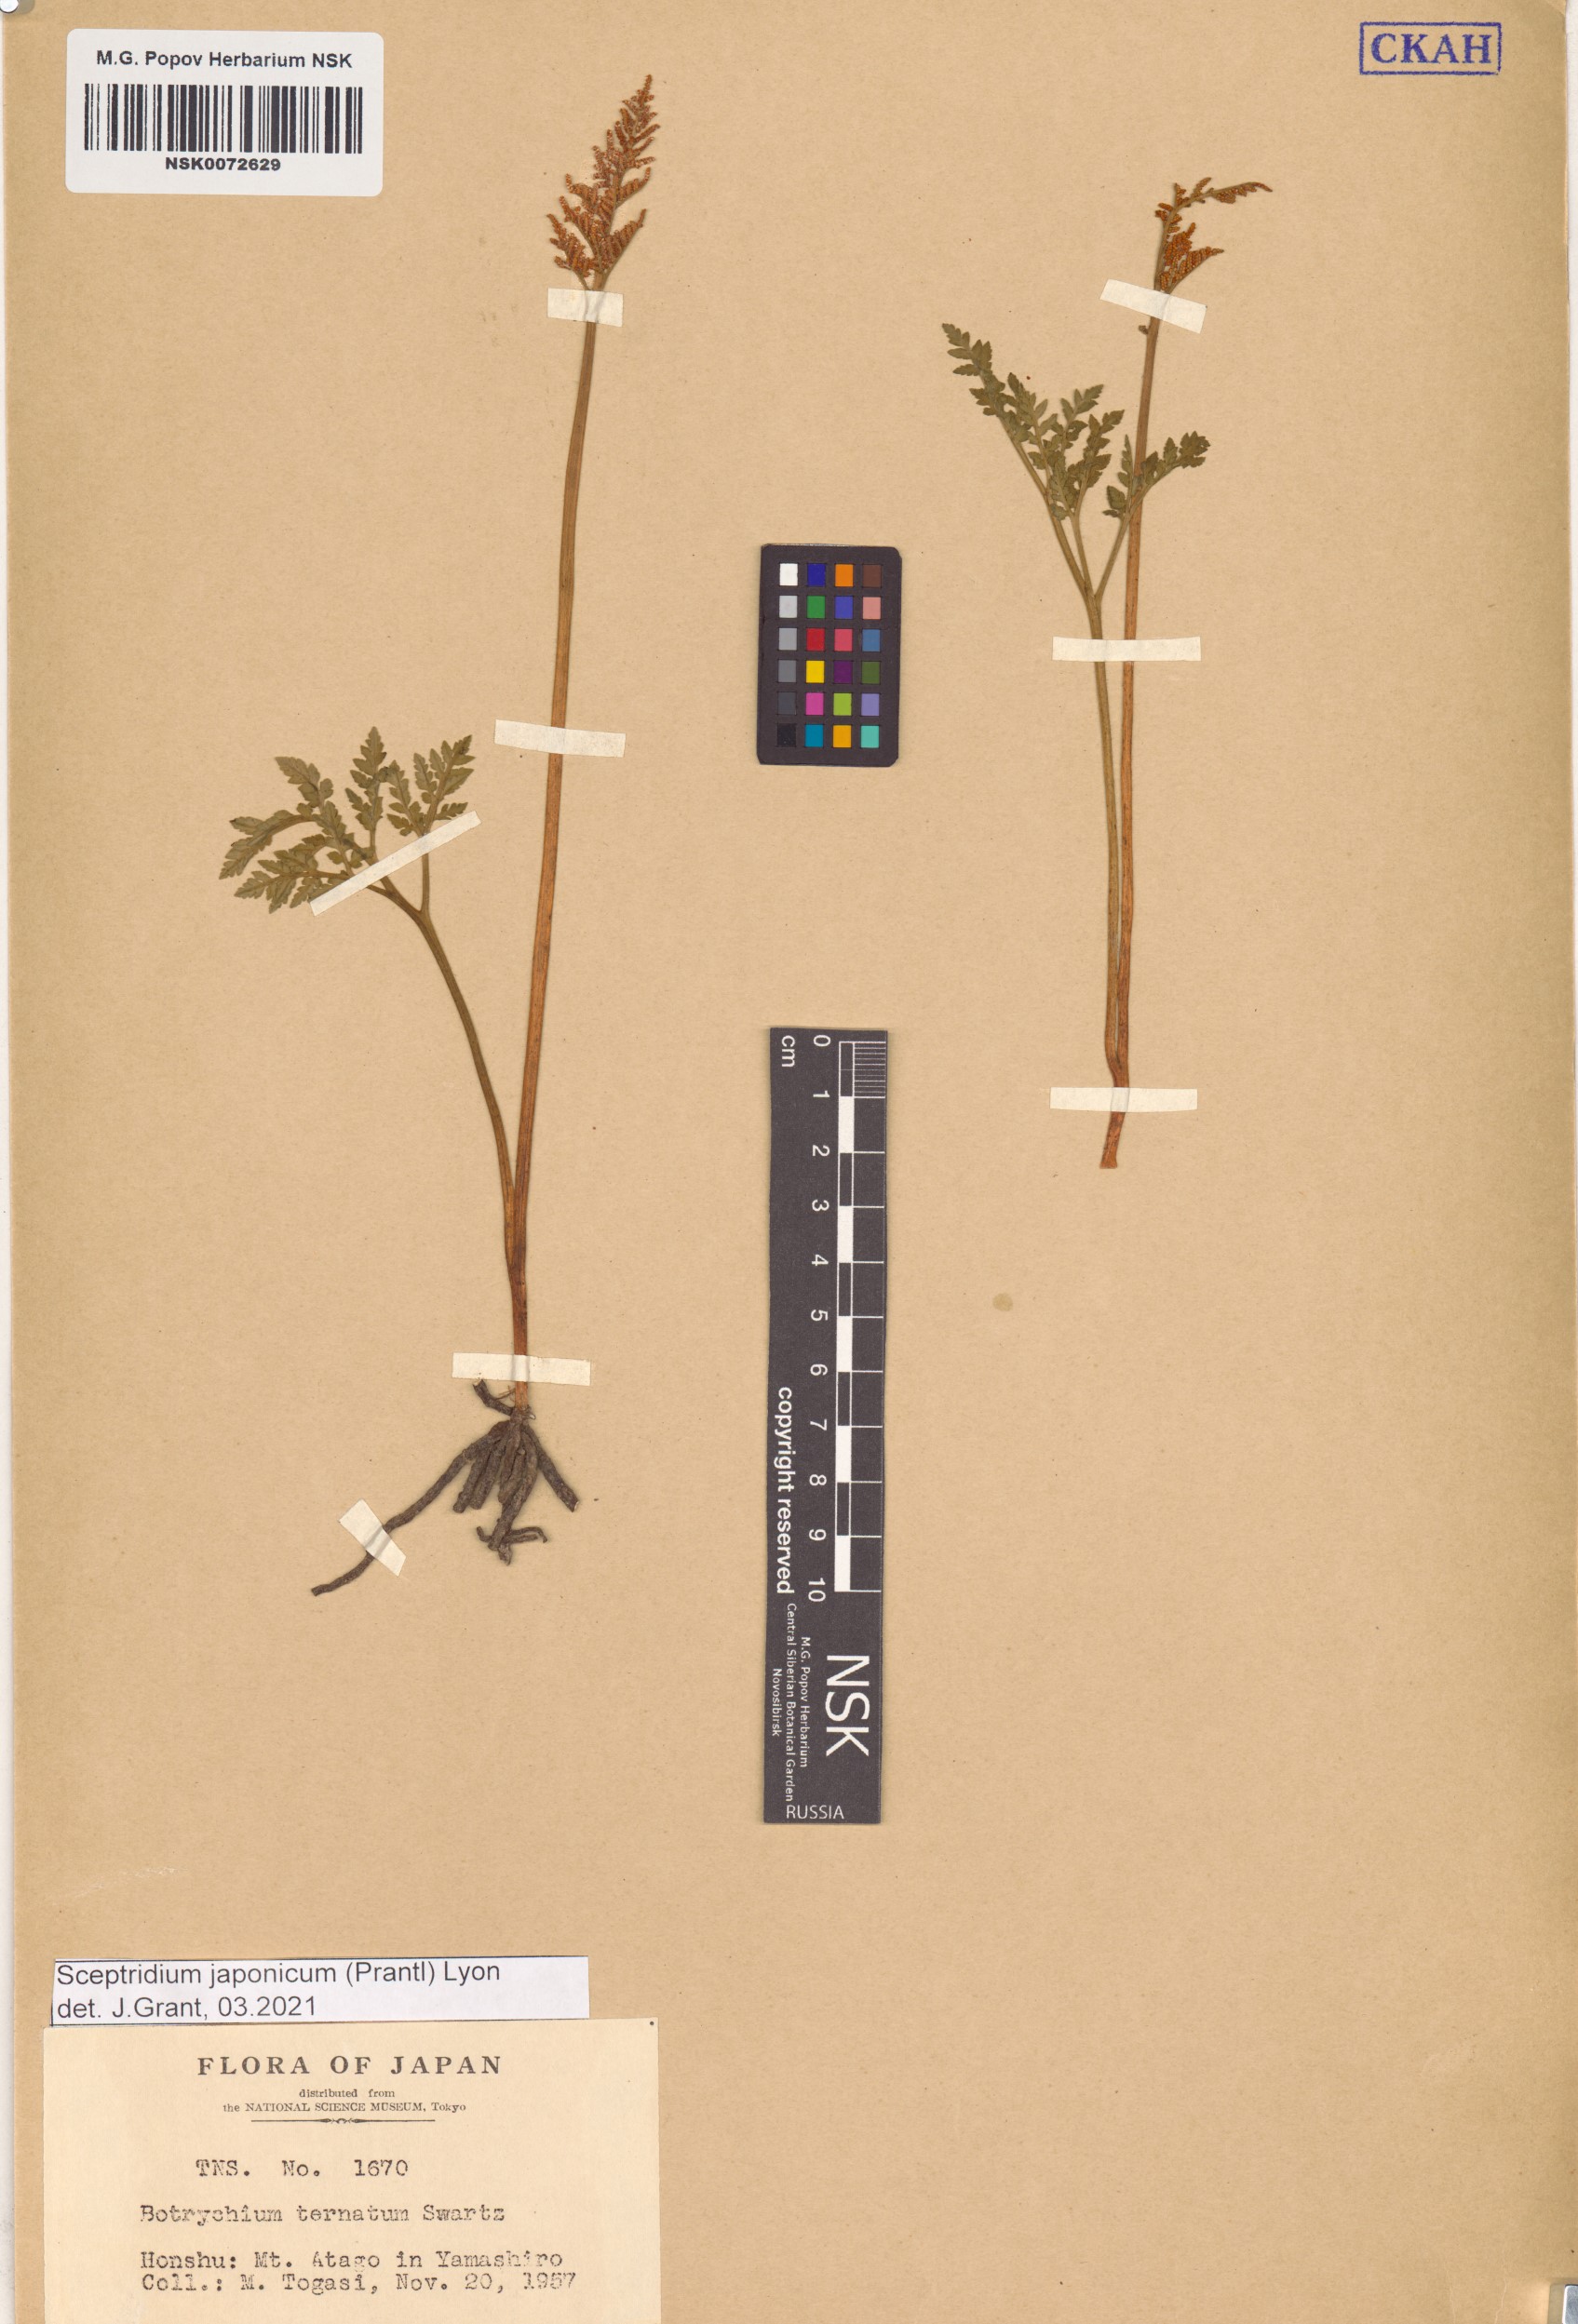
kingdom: Plantae
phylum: Tracheophyta
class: Polypodiopsida
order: Ophioglossales
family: Ophioglossaceae
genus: Sceptridium
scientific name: Sceptridium japonicum
